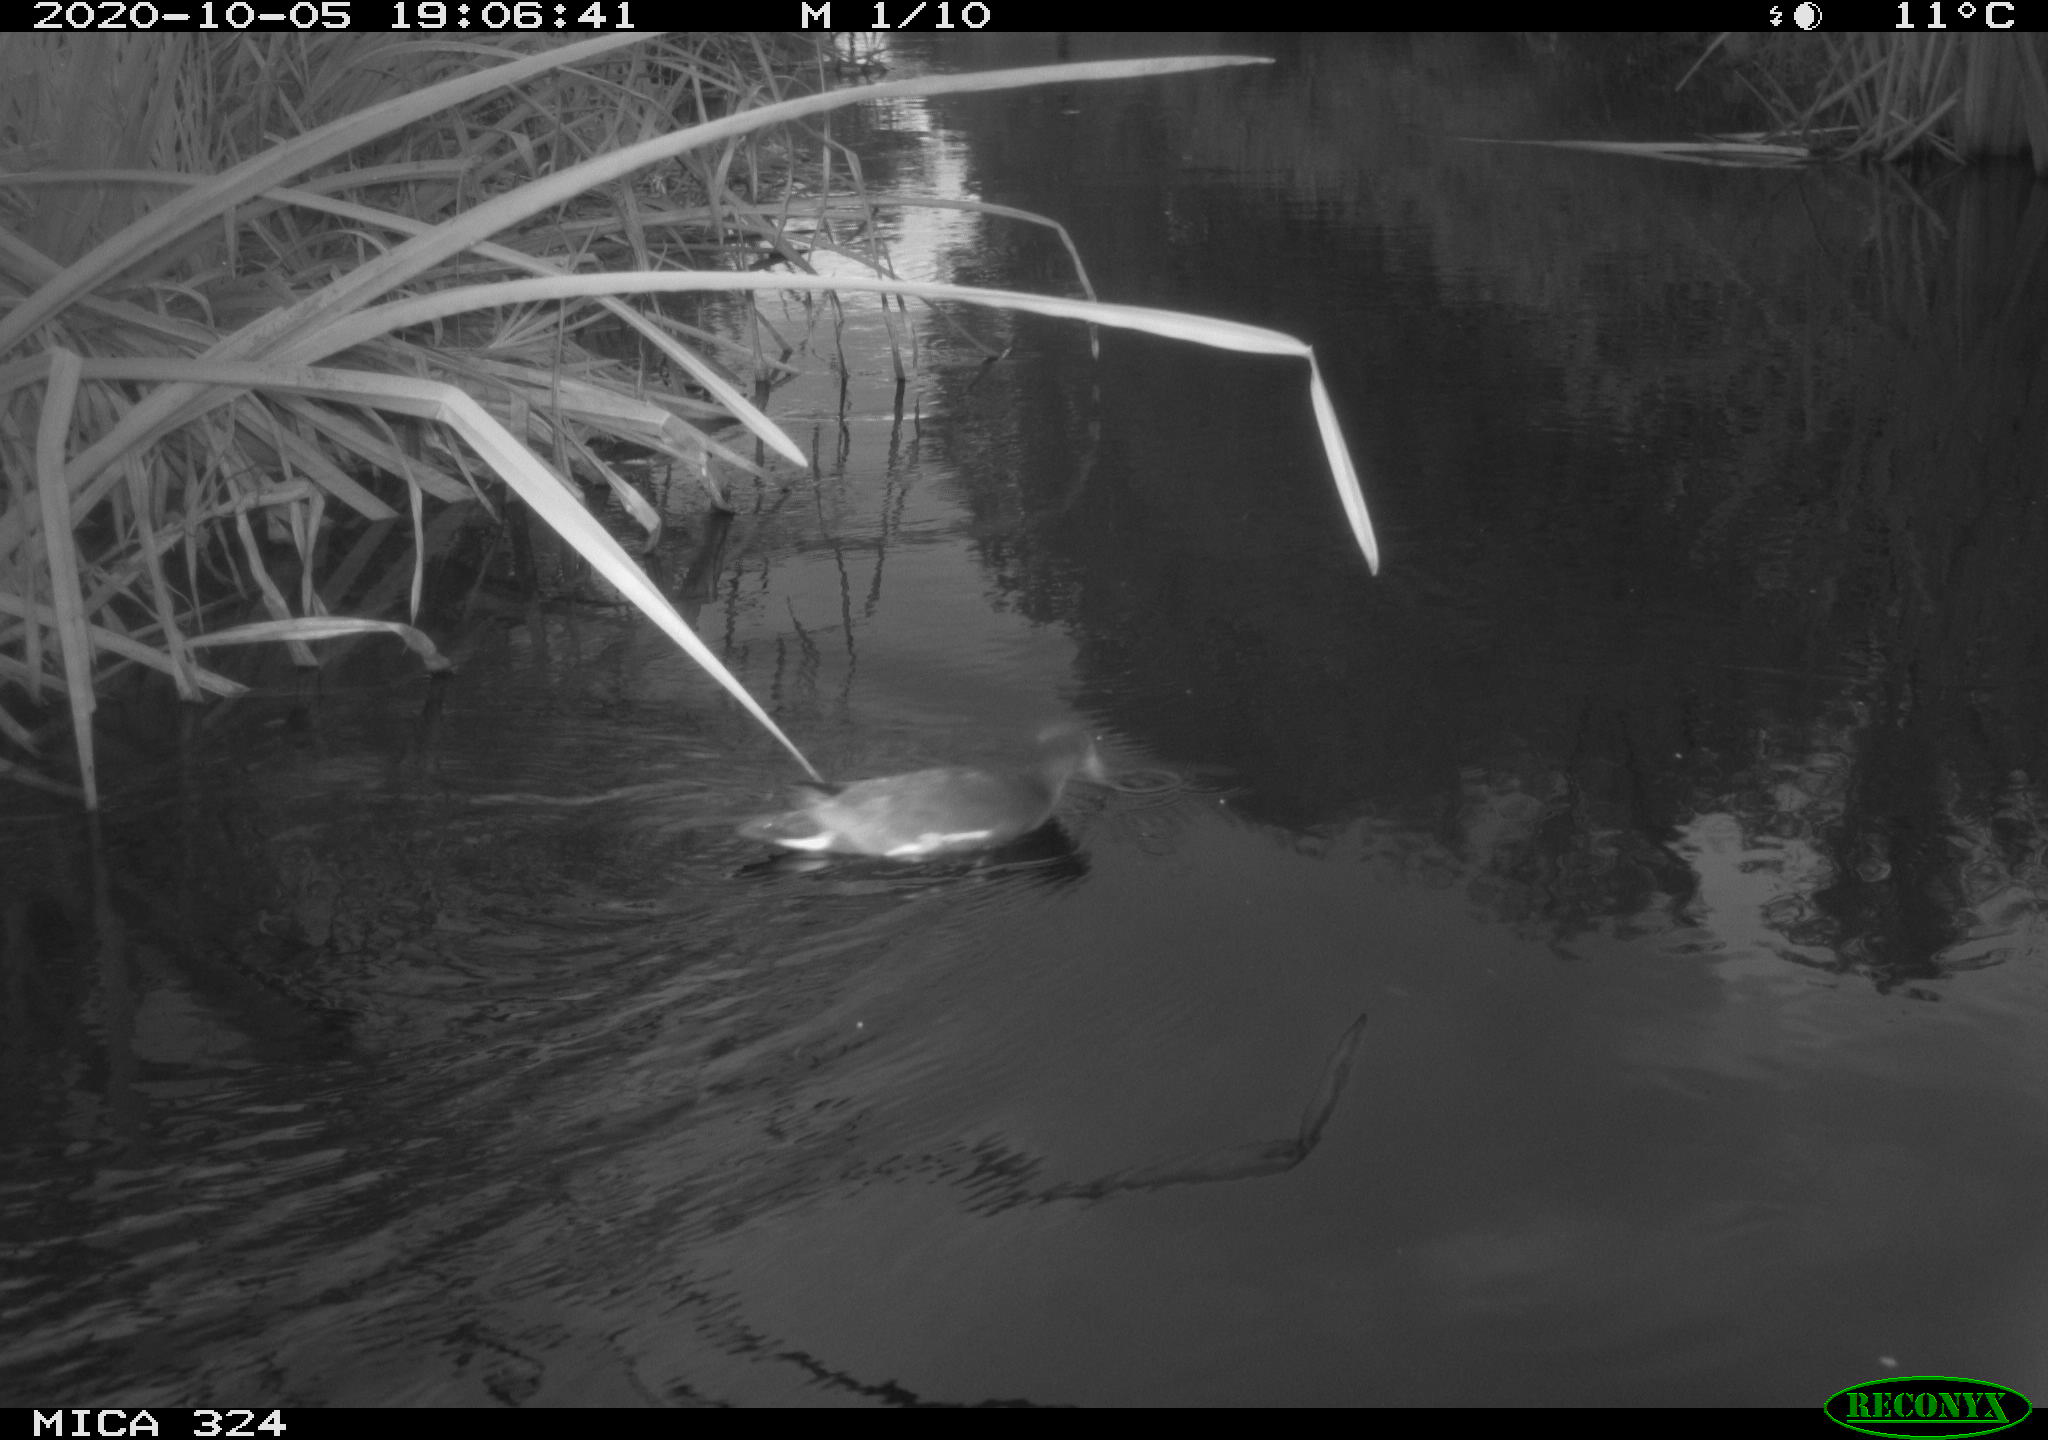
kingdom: Animalia
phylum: Chordata
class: Aves
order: Gruiformes
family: Rallidae
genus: Gallinula
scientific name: Gallinula chloropus
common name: Common moorhen
